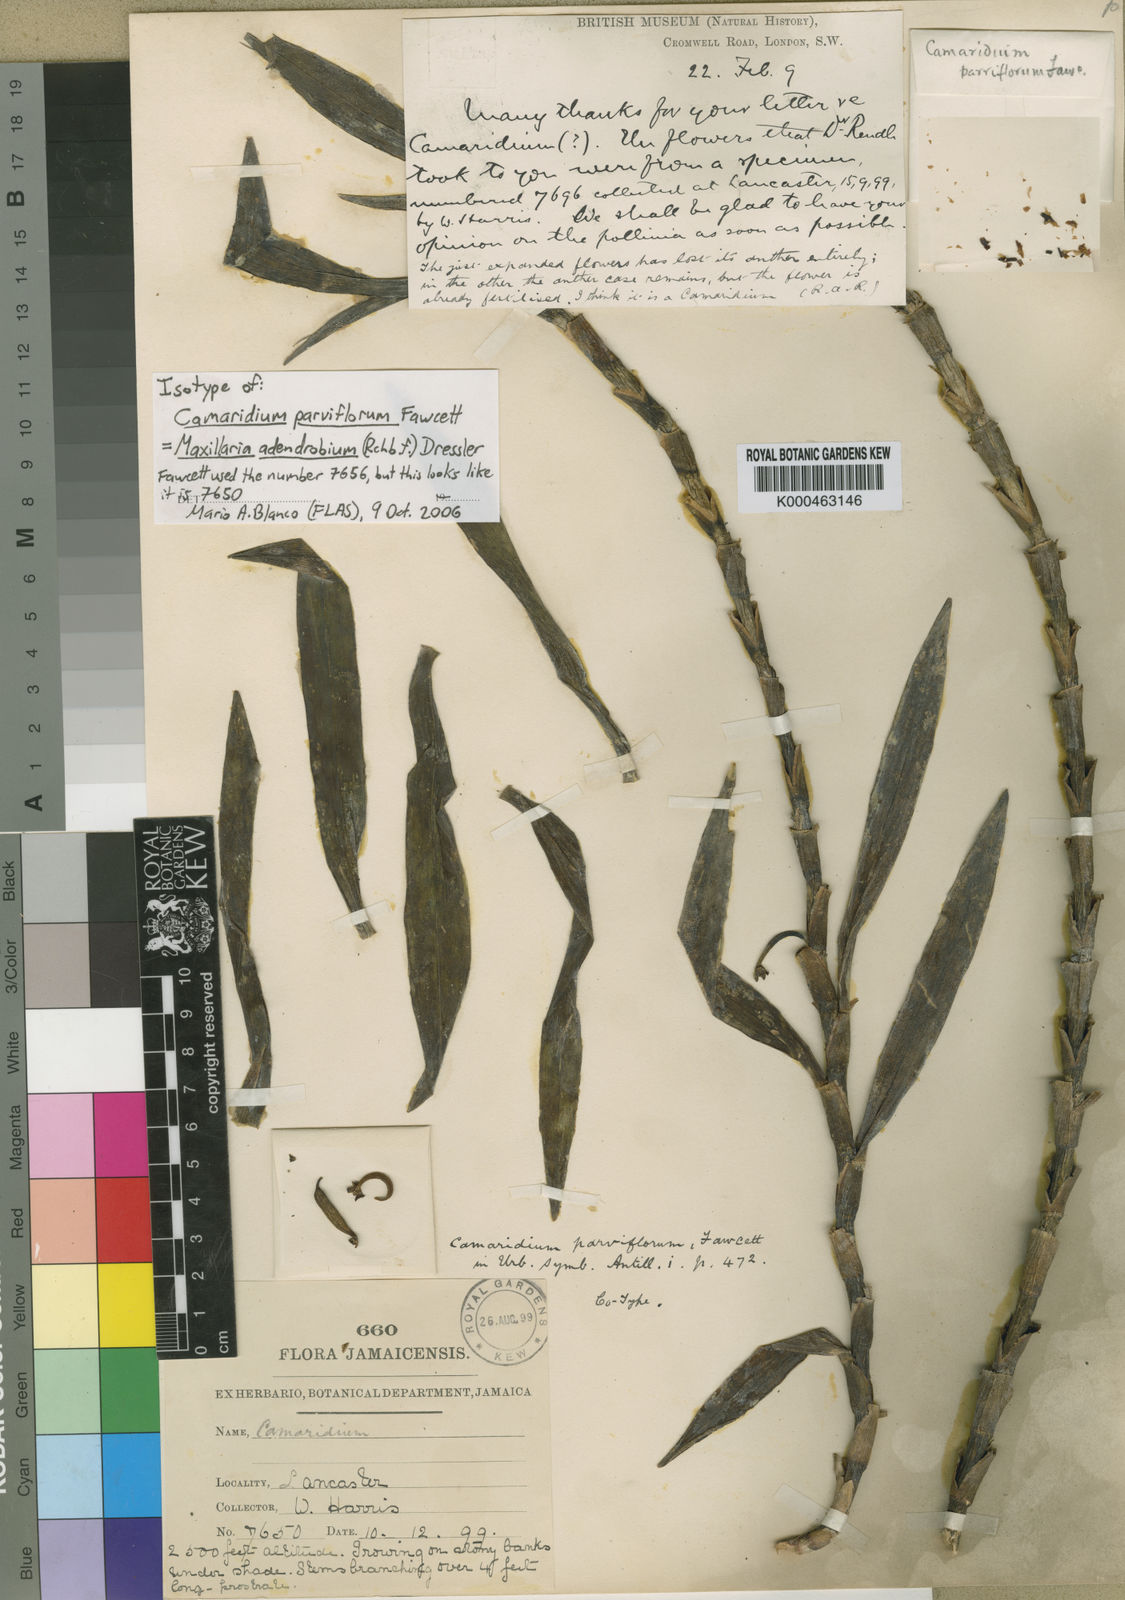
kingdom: Plantae
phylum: Tracheophyta
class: Liliopsida
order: Asparagales
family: Orchidaceae
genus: Maxillaria
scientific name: Maxillaria adendrobium
